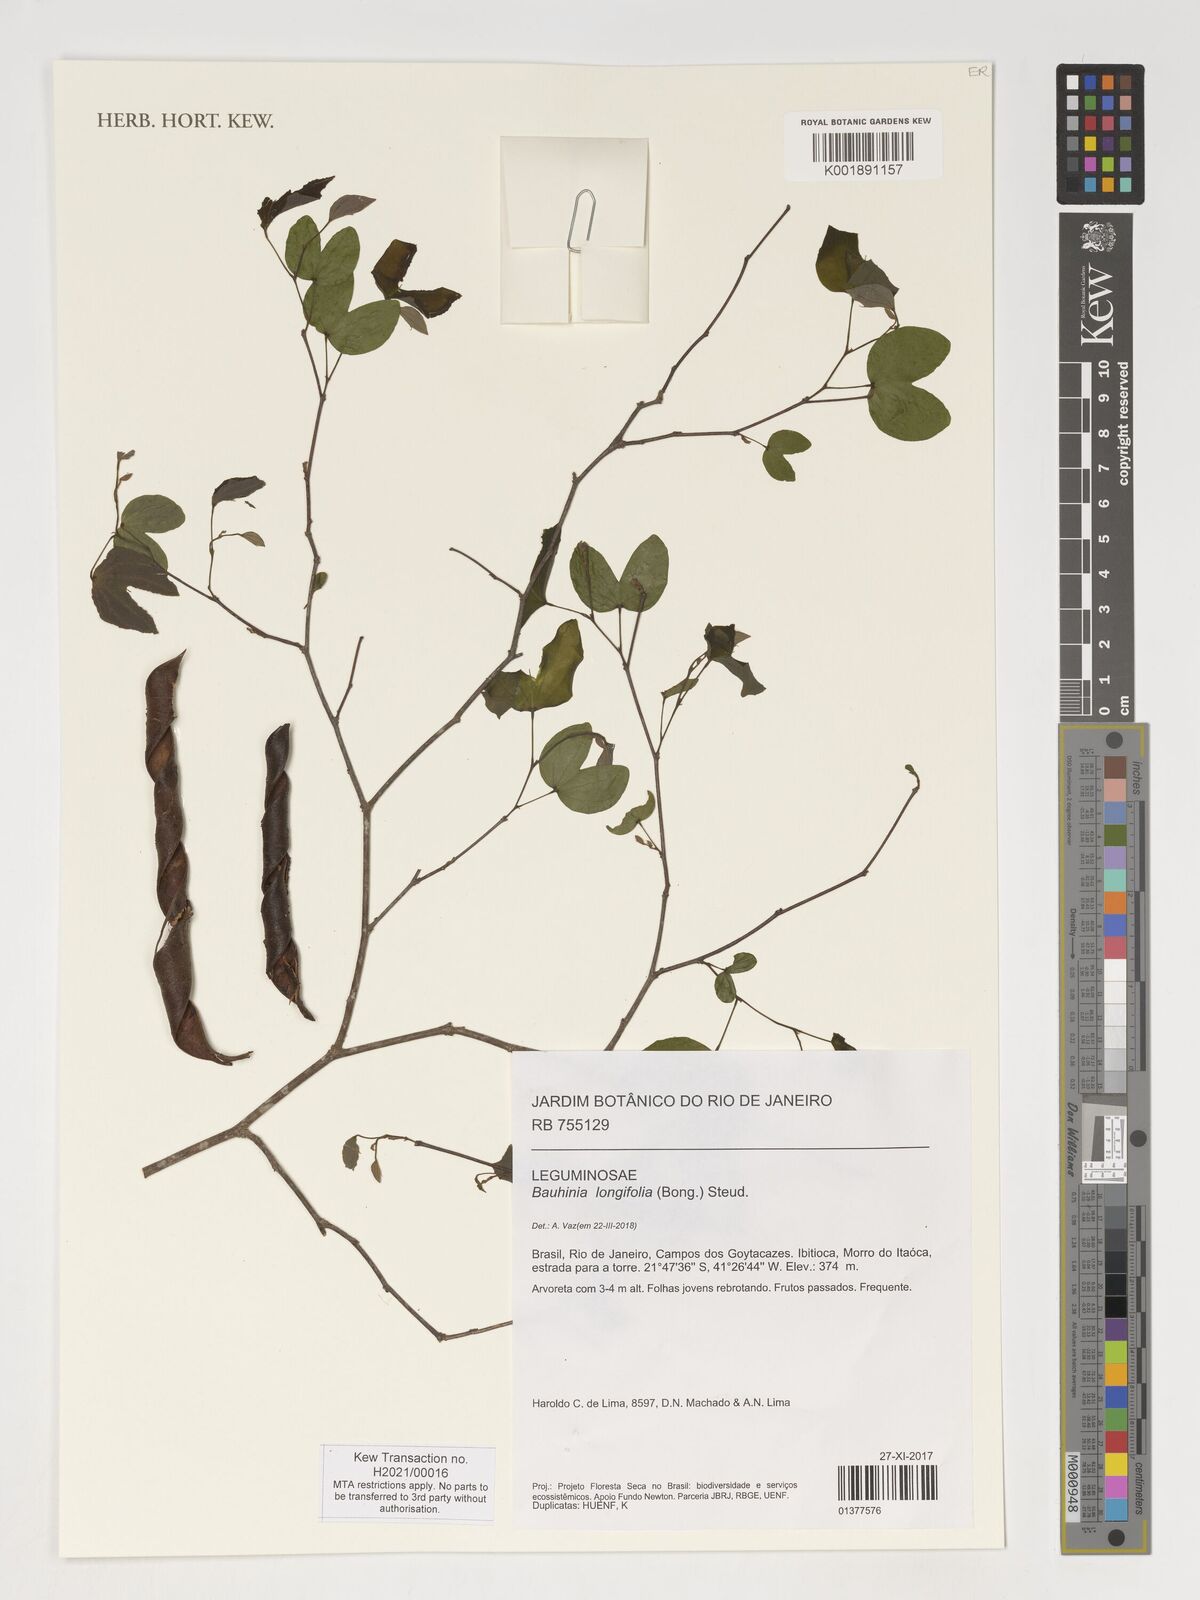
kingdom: Plantae
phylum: Tracheophyta
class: Magnoliopsida
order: Fabales
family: Fabaceae
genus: Bauhinia
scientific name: Bauhinia longifolia
